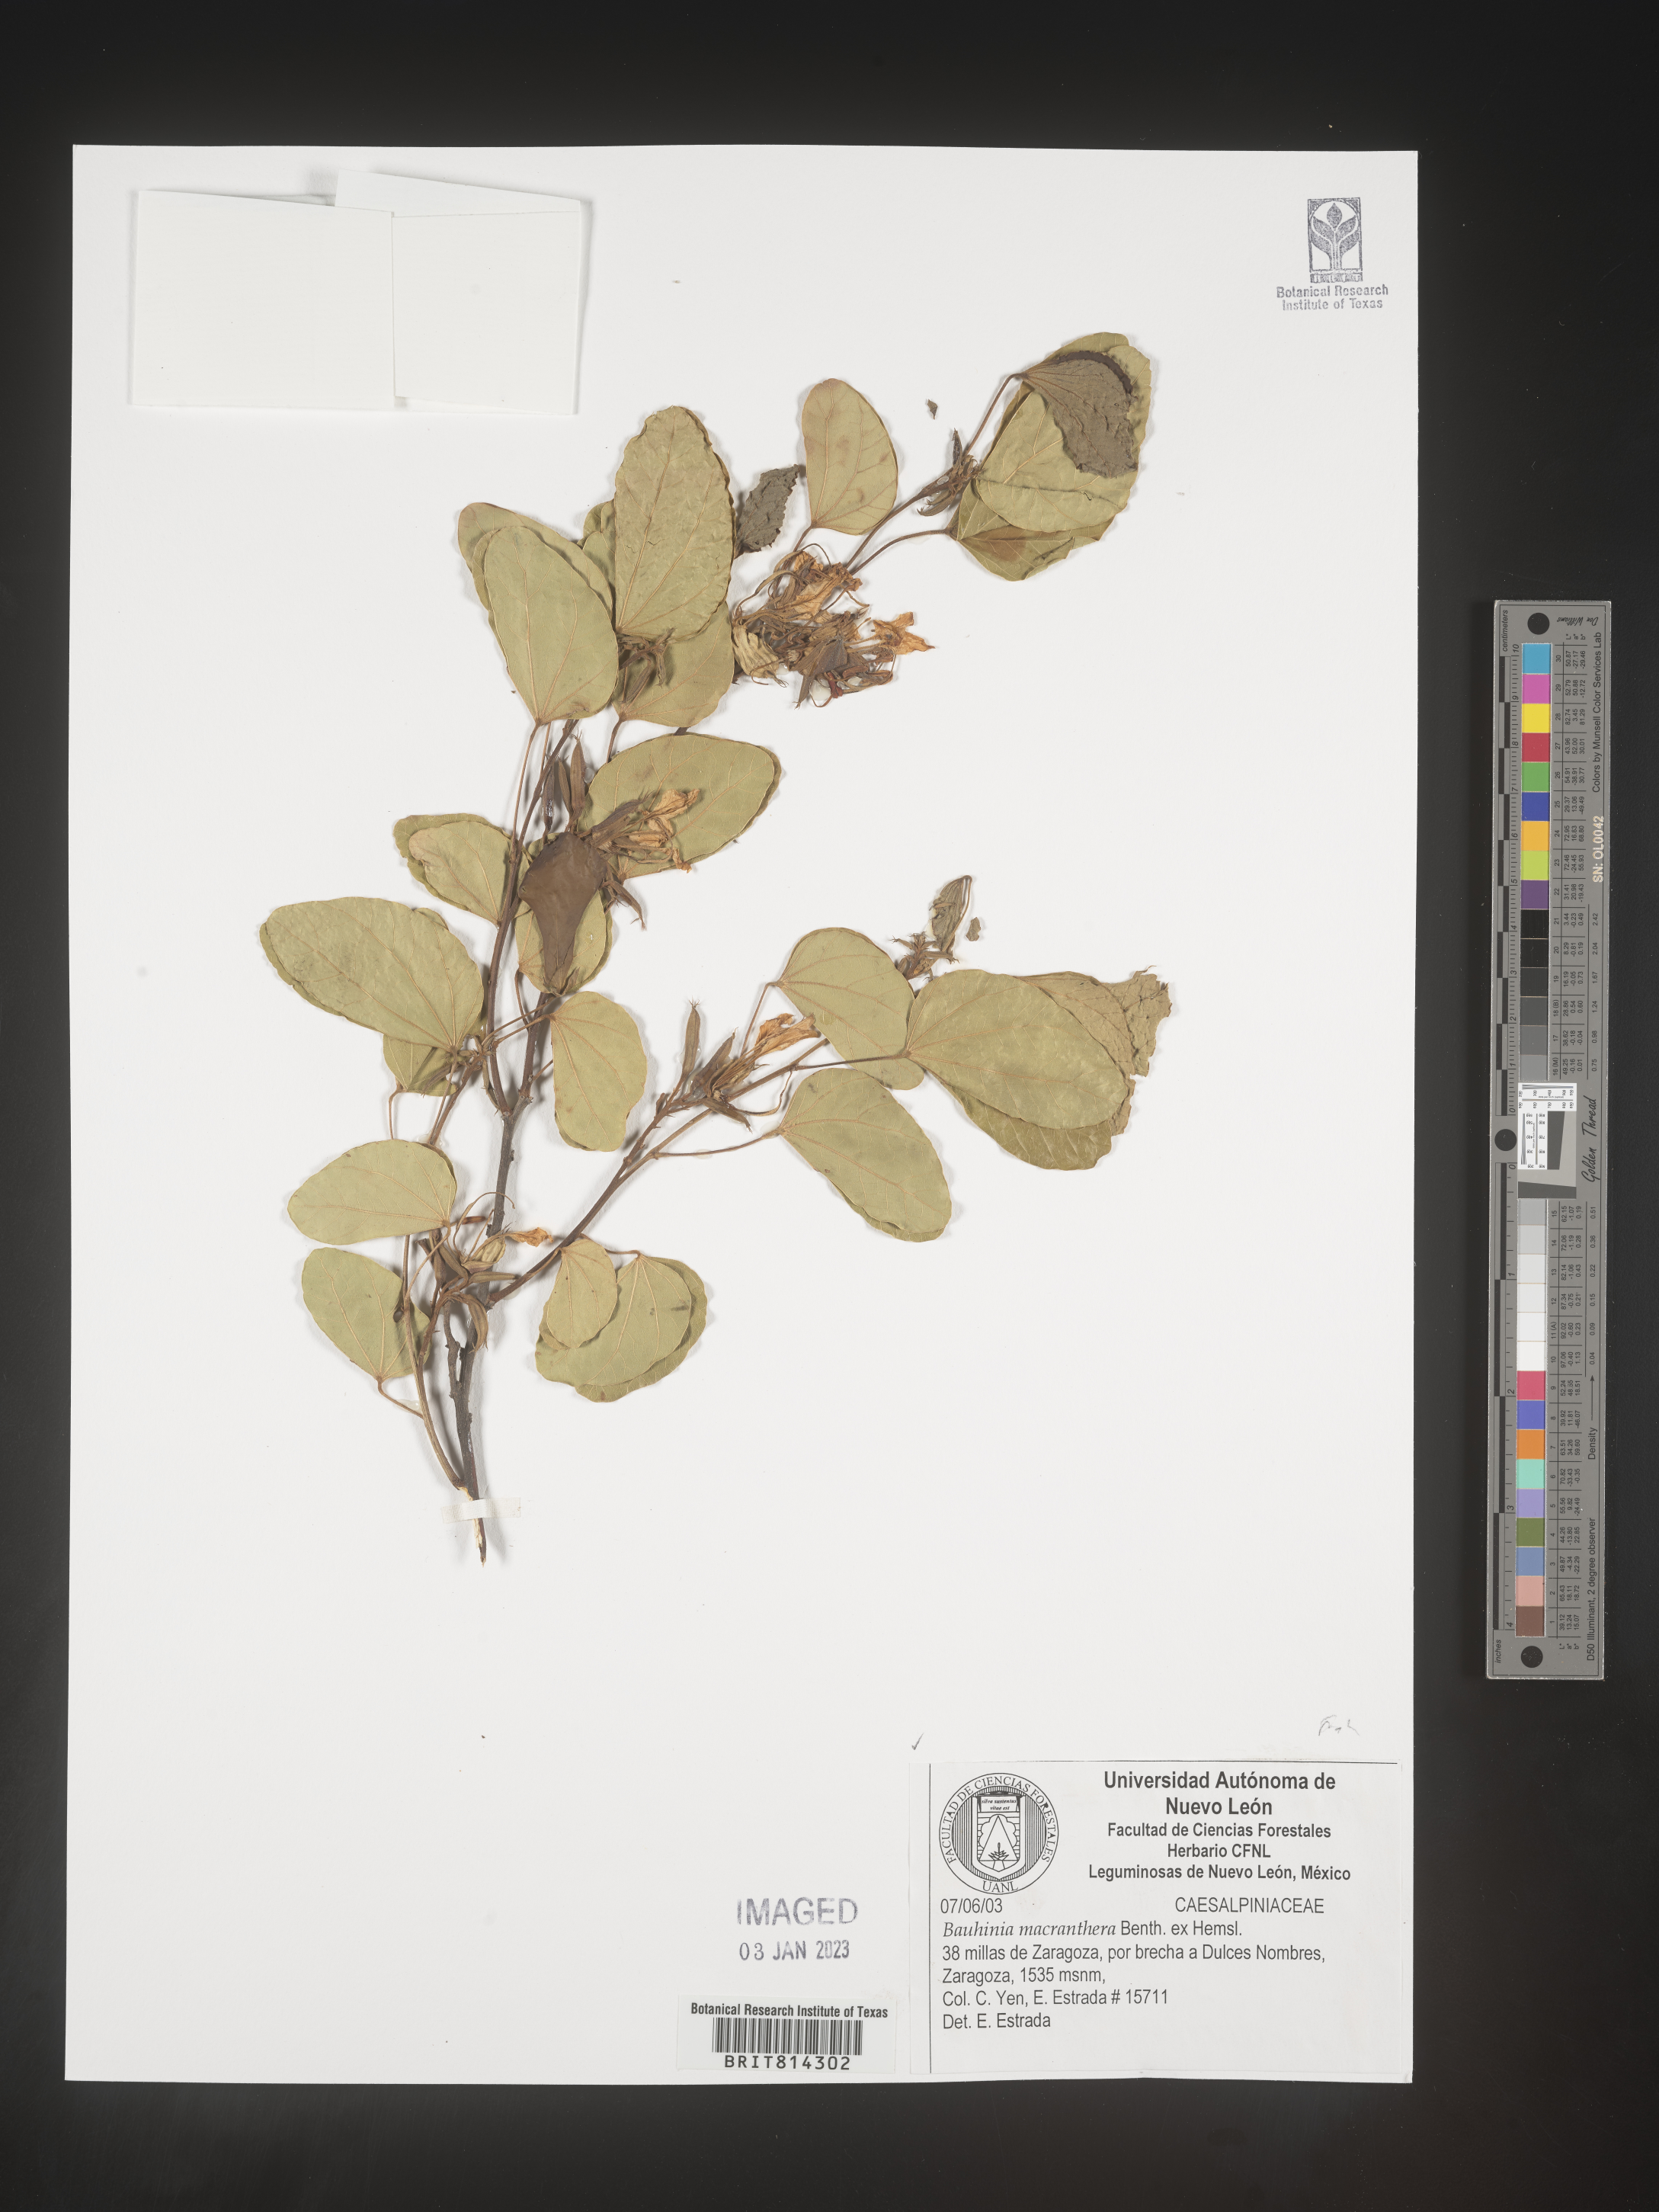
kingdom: Plantae
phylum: Tracheophyta
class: Magnoliopsida
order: Fabales
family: Fabaceae
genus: Bauhinia
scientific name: Bauhinia
